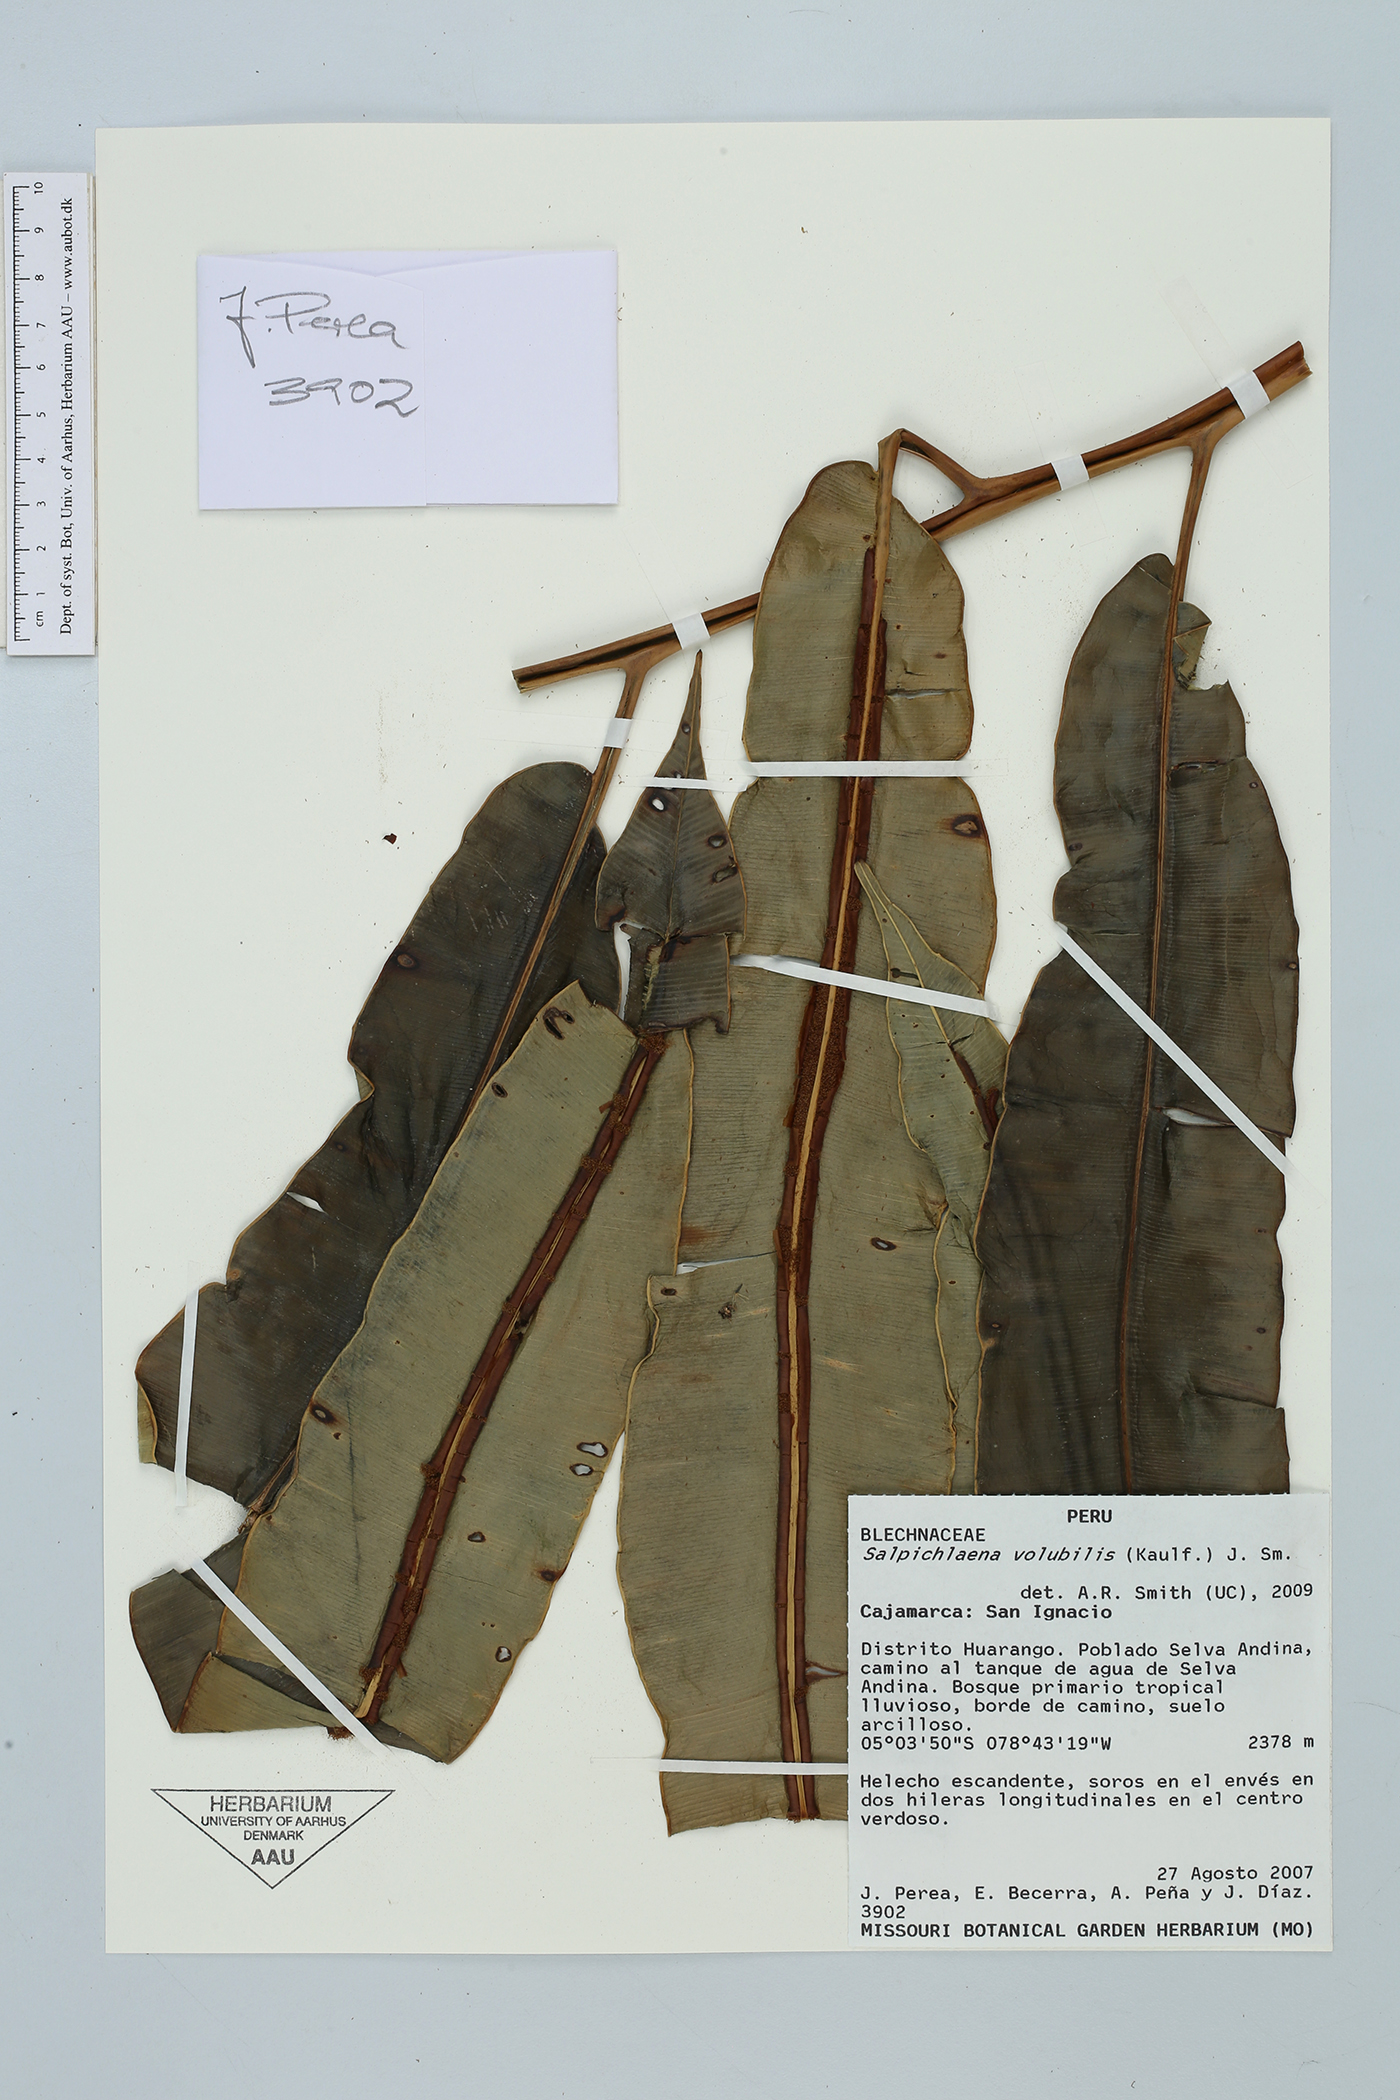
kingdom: Plantae
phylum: Tracheophyta
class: Polypodiopsida
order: Polypodiales
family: Blechnaceae
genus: Salpichlaena
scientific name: Salpichlaena volubilis
